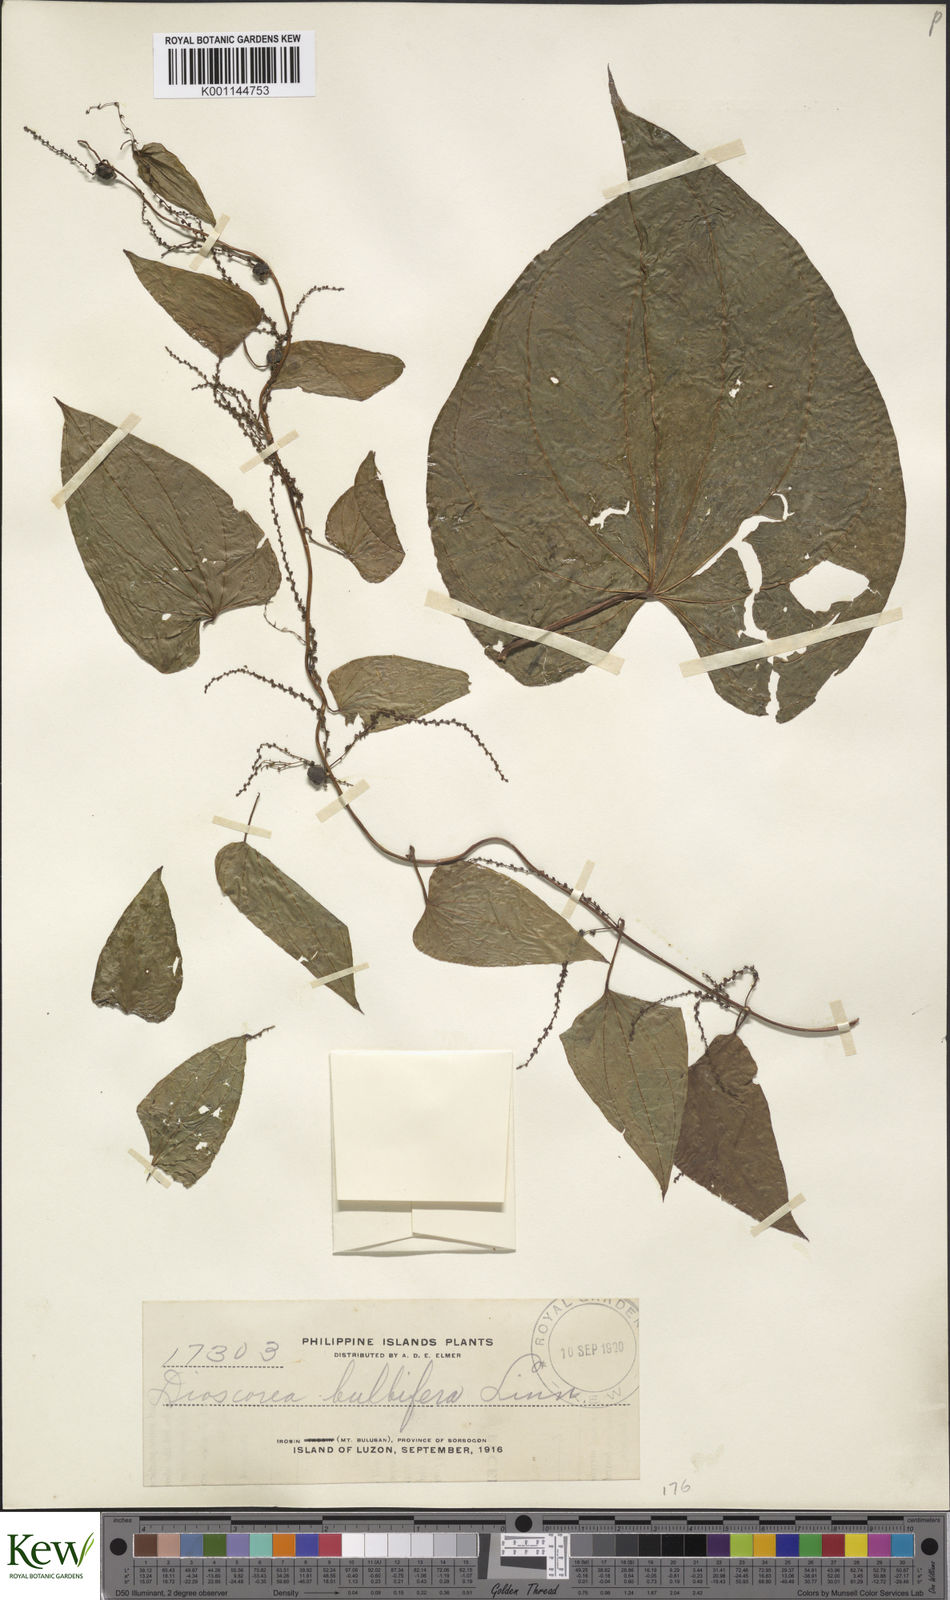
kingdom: Plantae
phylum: Tracheophyta
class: Liliopsida
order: Dioscoreales
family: Dioscoreaceae
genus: Dioscorea
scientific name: Dioscorea bulbifera
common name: Air yam
